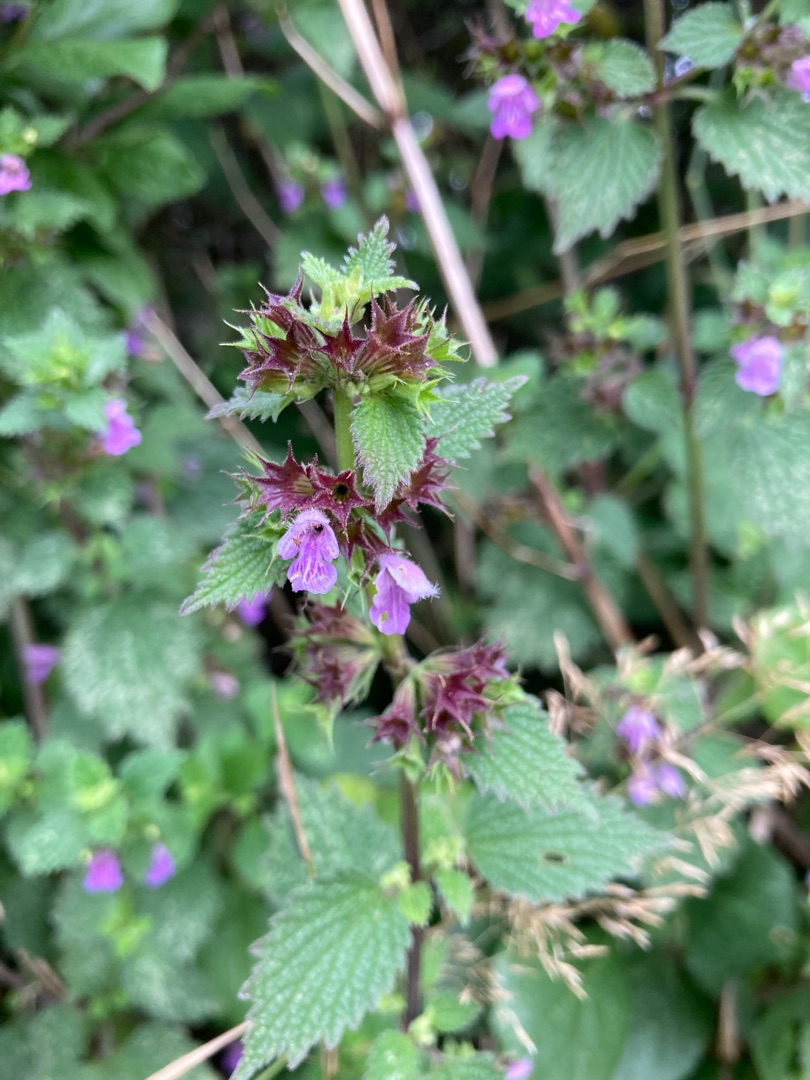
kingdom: Plantae
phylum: Tracheophyta
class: Magnoliopsida
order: Lamiales
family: Lamiaceae
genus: Ballota
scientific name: Ballota nigra
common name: Tandbæger
